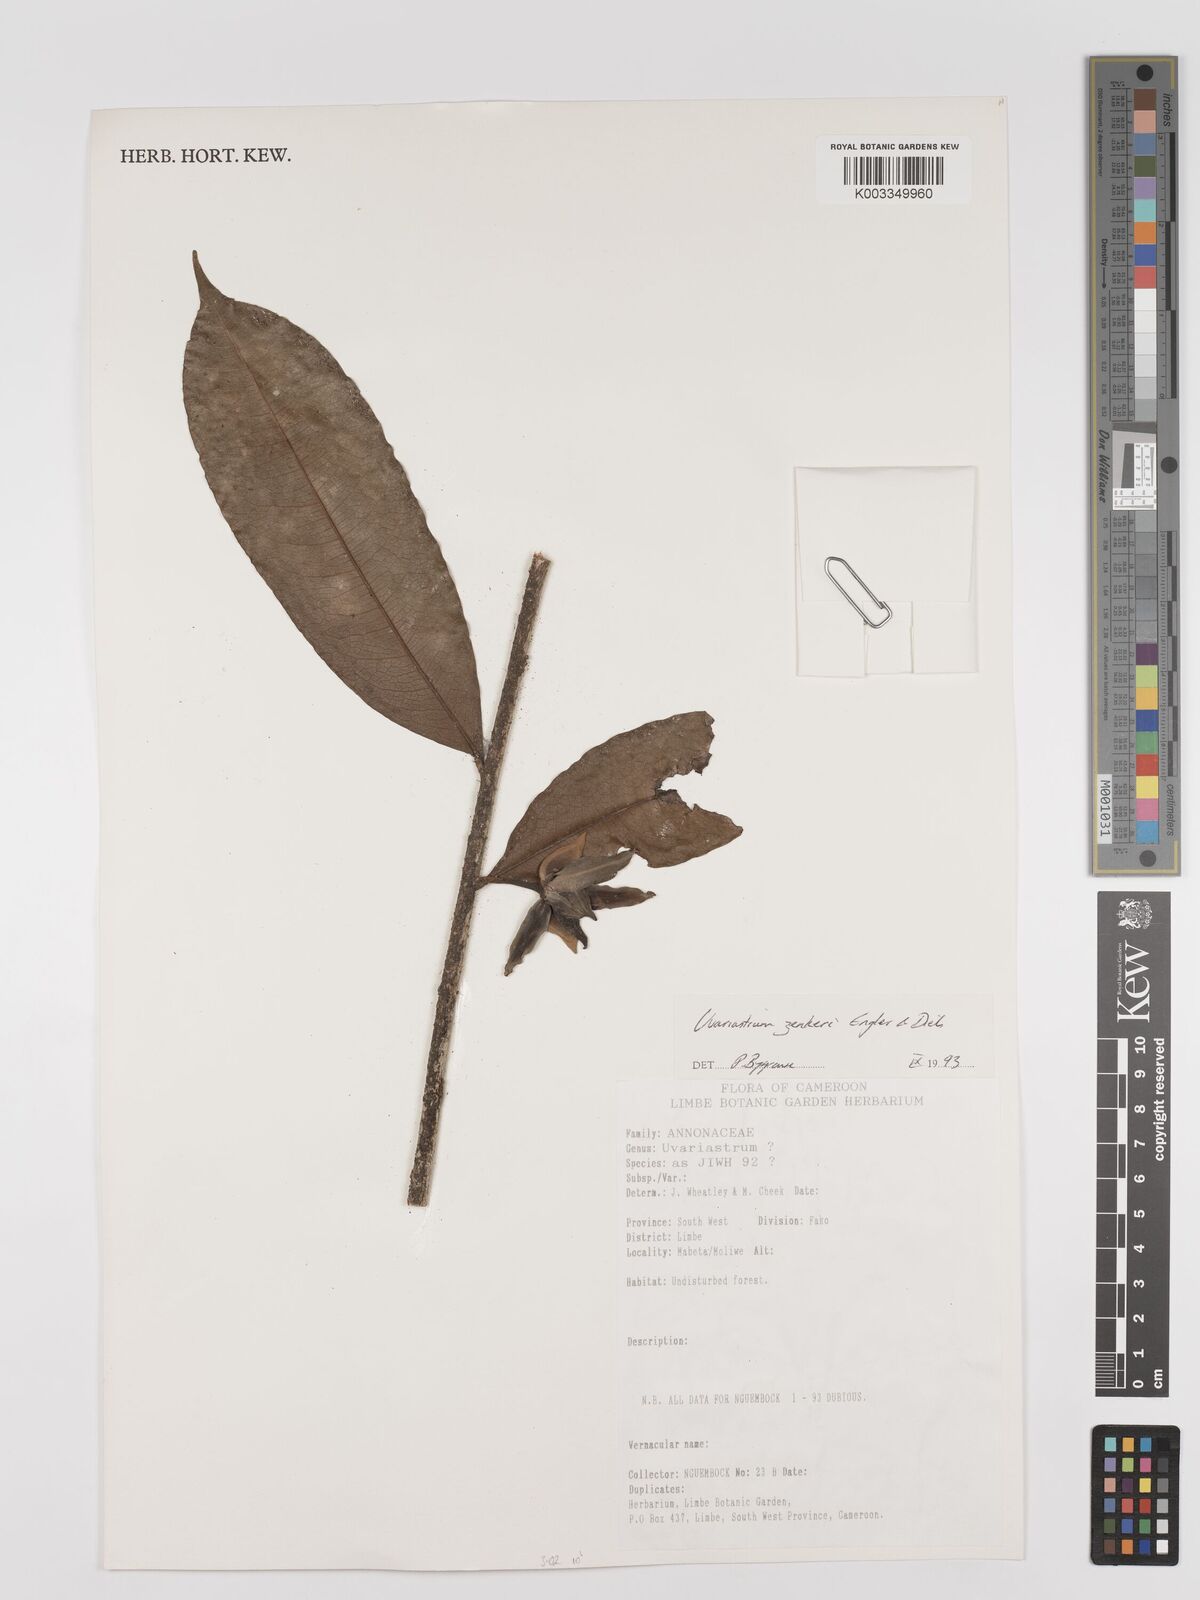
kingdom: Plantae
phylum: Tracheophyta
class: Magnoliopsida
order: Magnoliales
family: Annonaceae
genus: Uvariastrum
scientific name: Uvariastrum zenkeri
